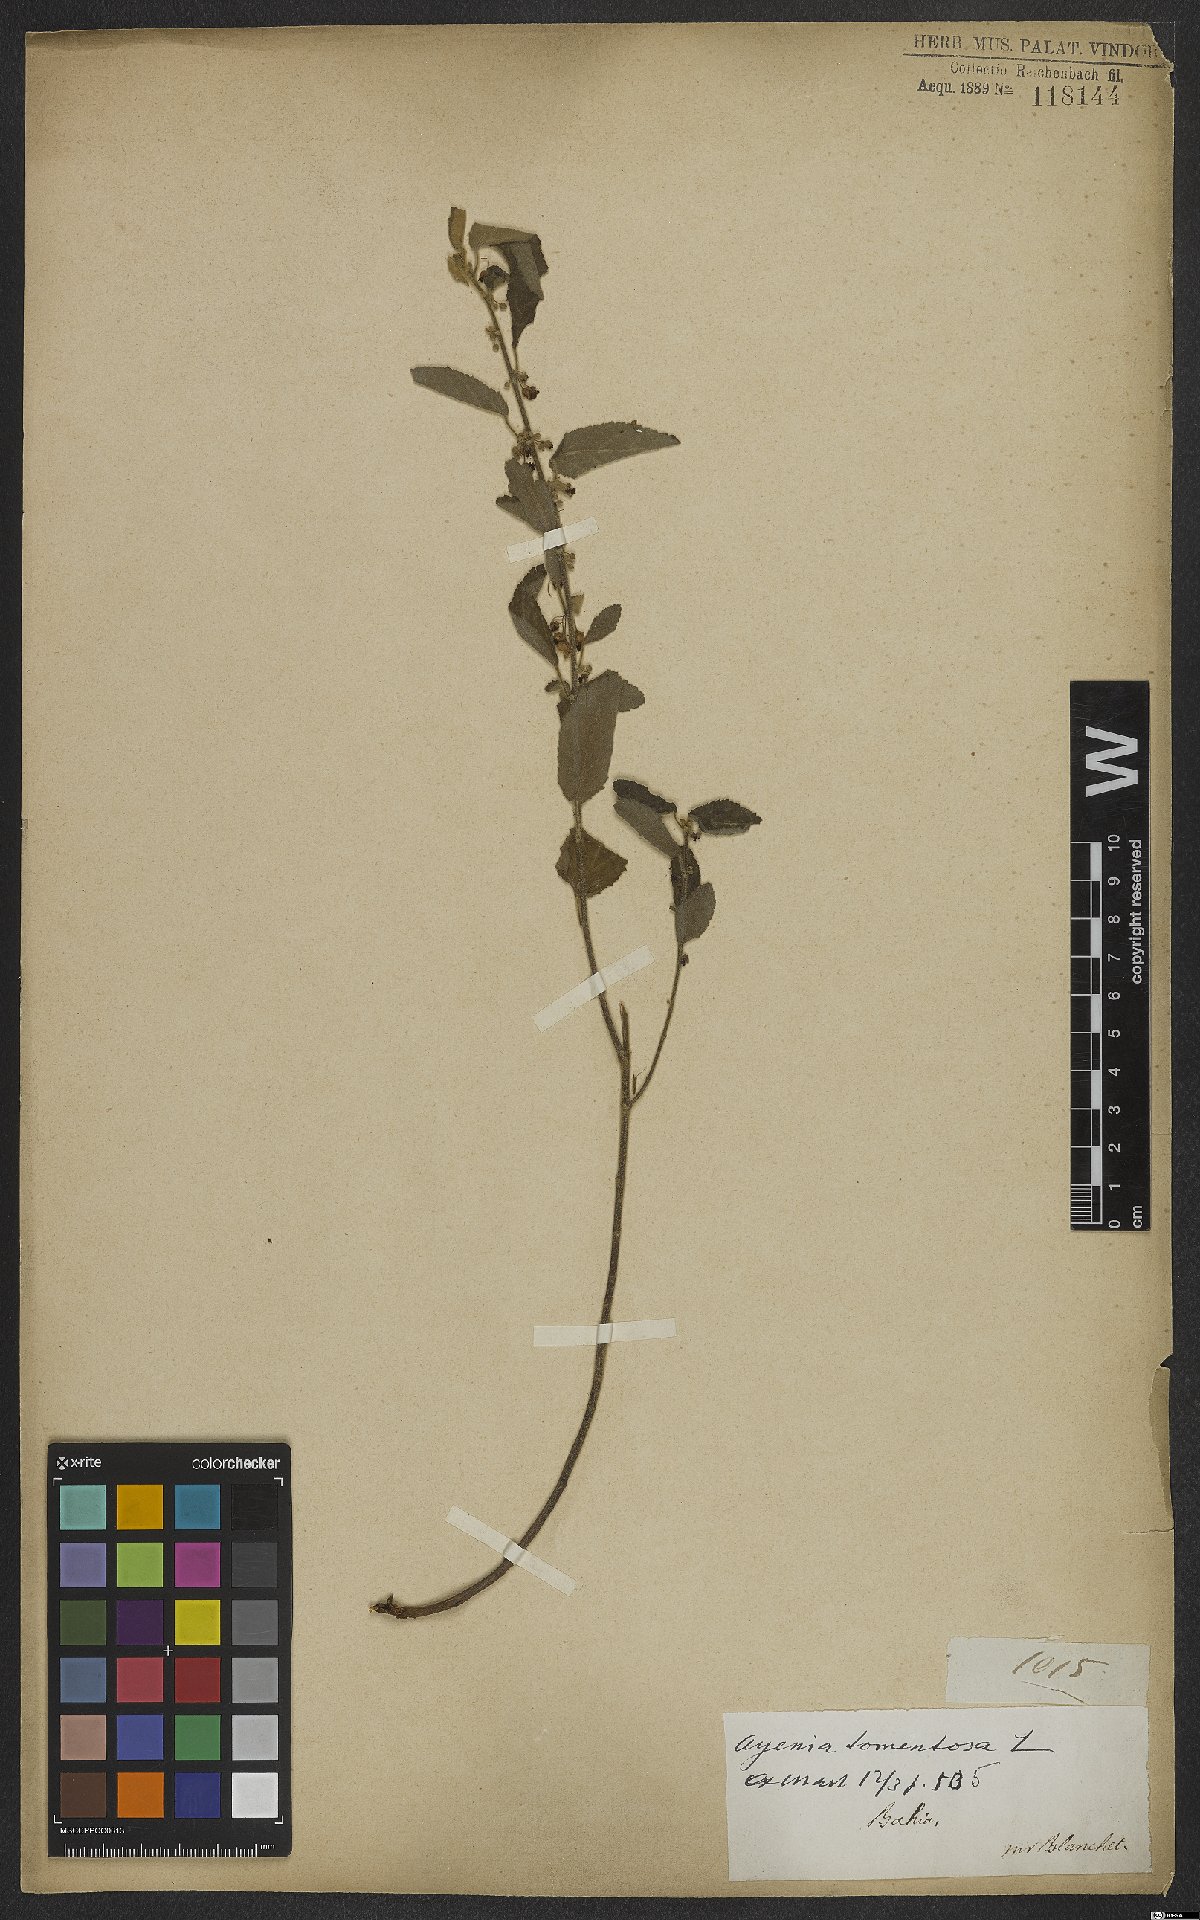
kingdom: Plantae
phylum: Tracheophyta
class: Magnoliopsida
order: Malvales
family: Malvaceae
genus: Ayenia
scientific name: Ayenia tomentosa
